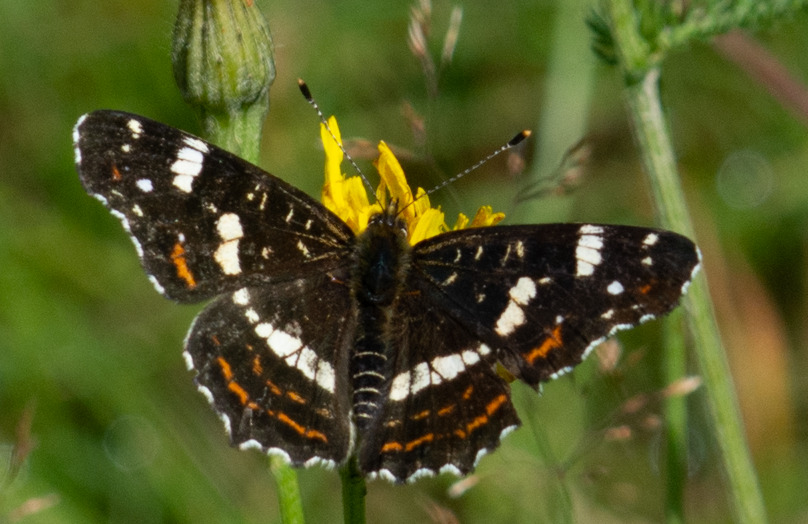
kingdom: Animalia
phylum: Arthropoda
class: Insecta
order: Lepidoptera
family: Nymphalidae
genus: Araschnia
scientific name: Araschnia levana
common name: Nældesommerfugl
